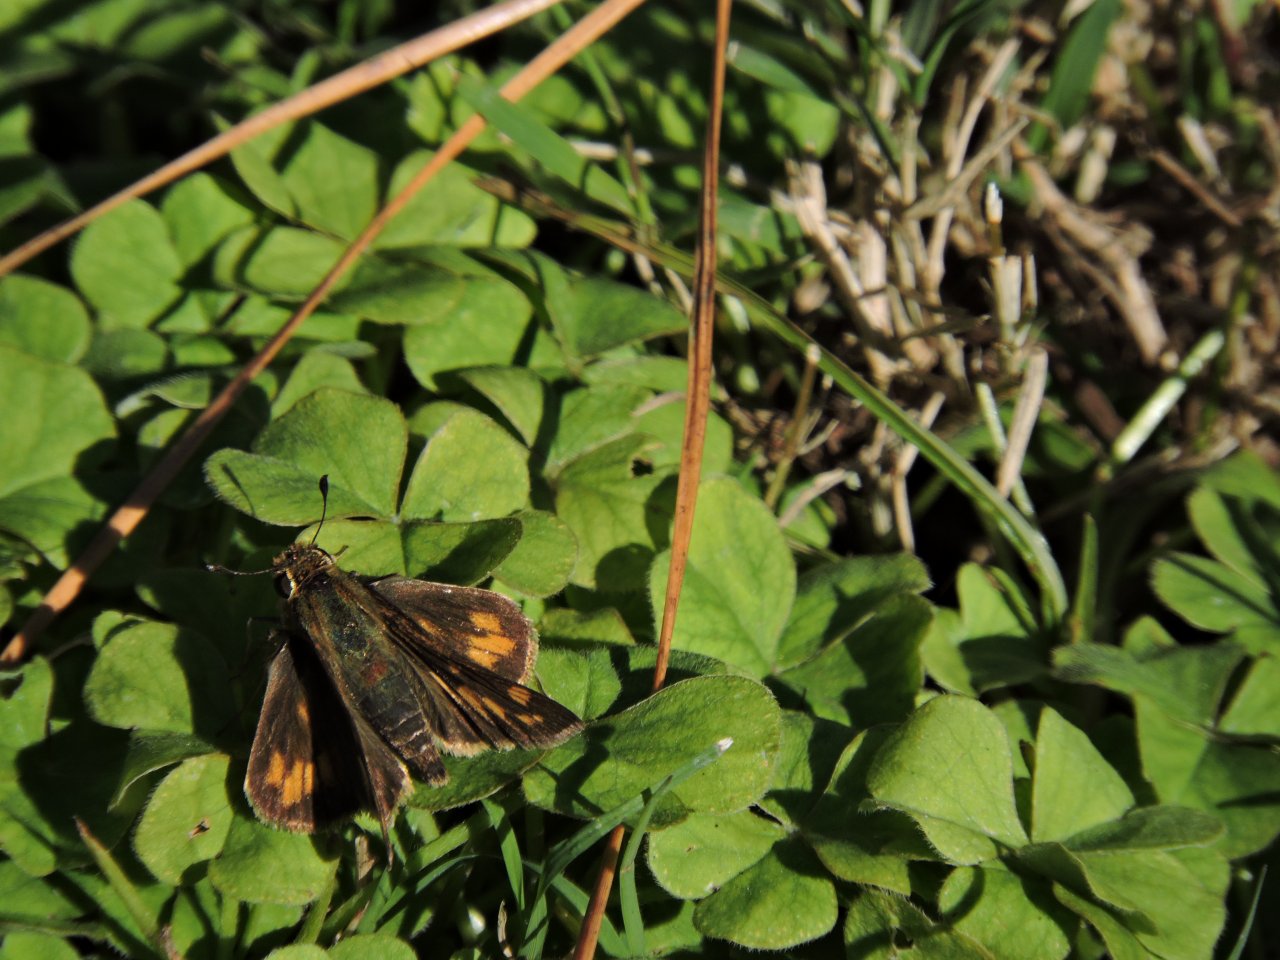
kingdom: Animalia
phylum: Arthropoda
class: Insecta
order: Lepidoptera
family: Hesperiidae
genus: Hylephila
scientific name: Hylephila phyleus
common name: Fiery Skipper
